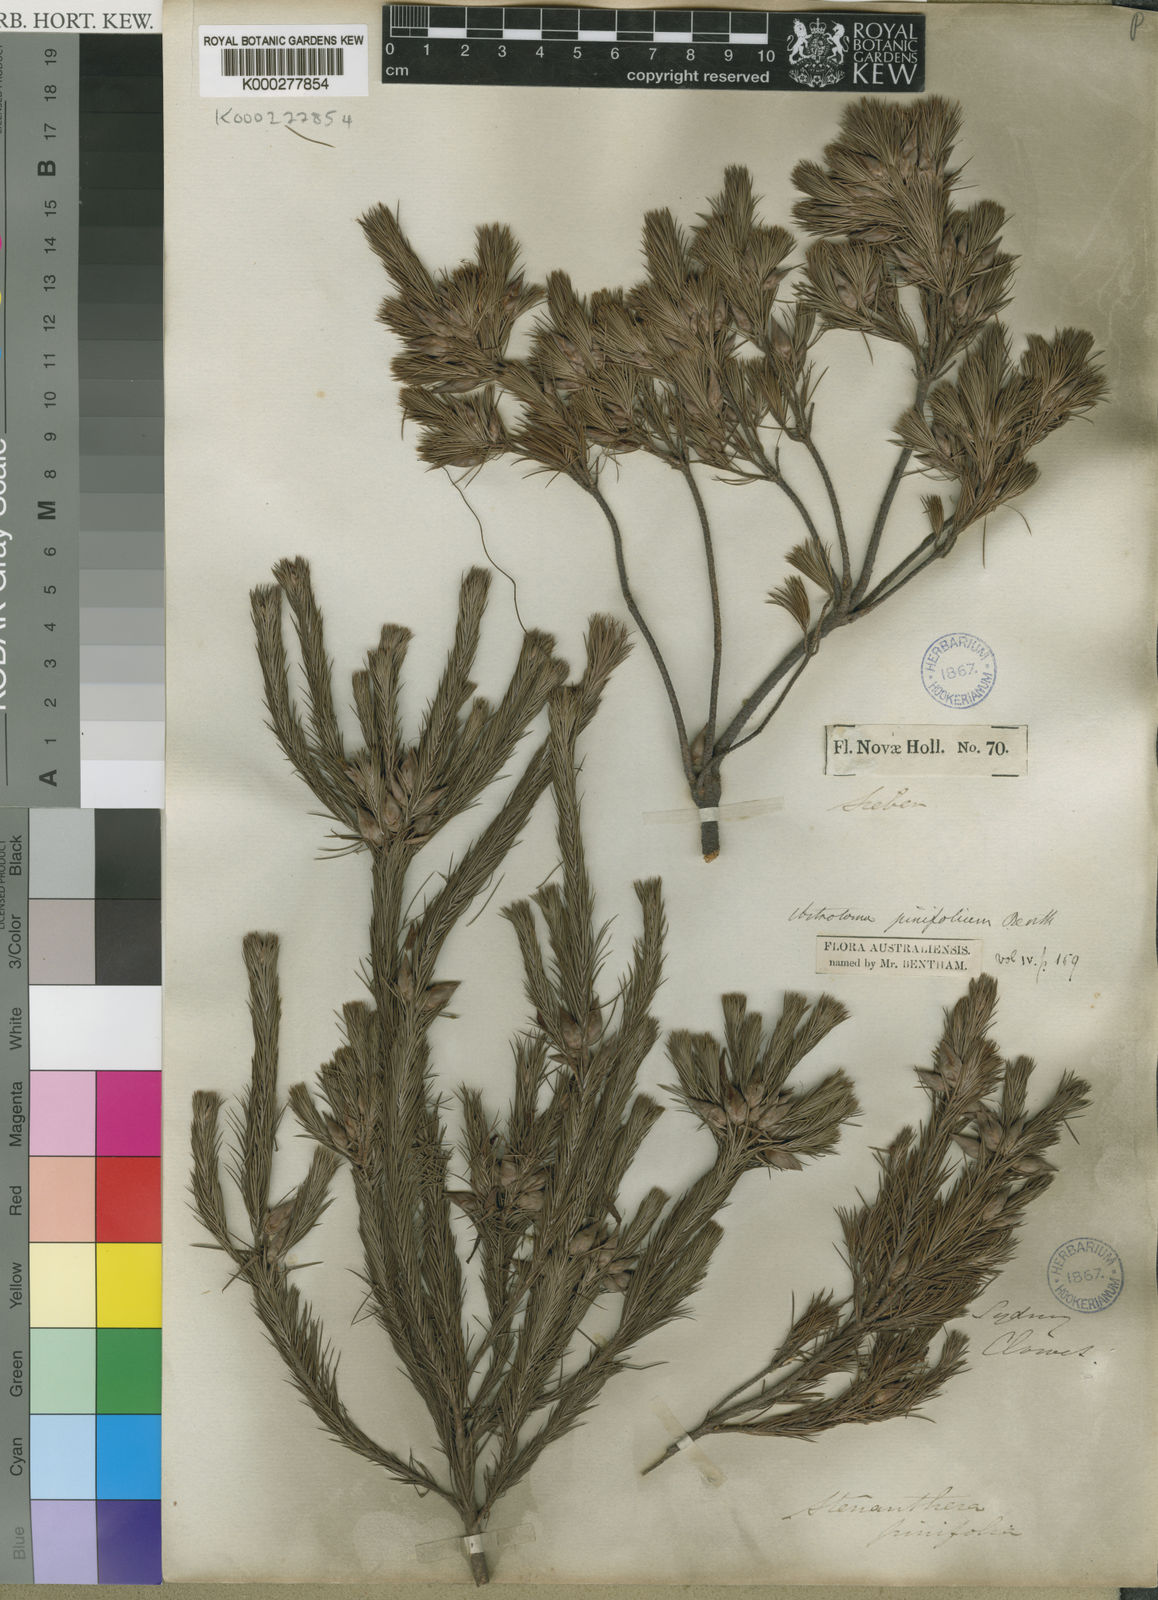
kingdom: Plantae
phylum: Tracheophyta
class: Magnoliopsida
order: Ericales
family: Ericaceae
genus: Stenanthera
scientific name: Stenanthera pinifolia
